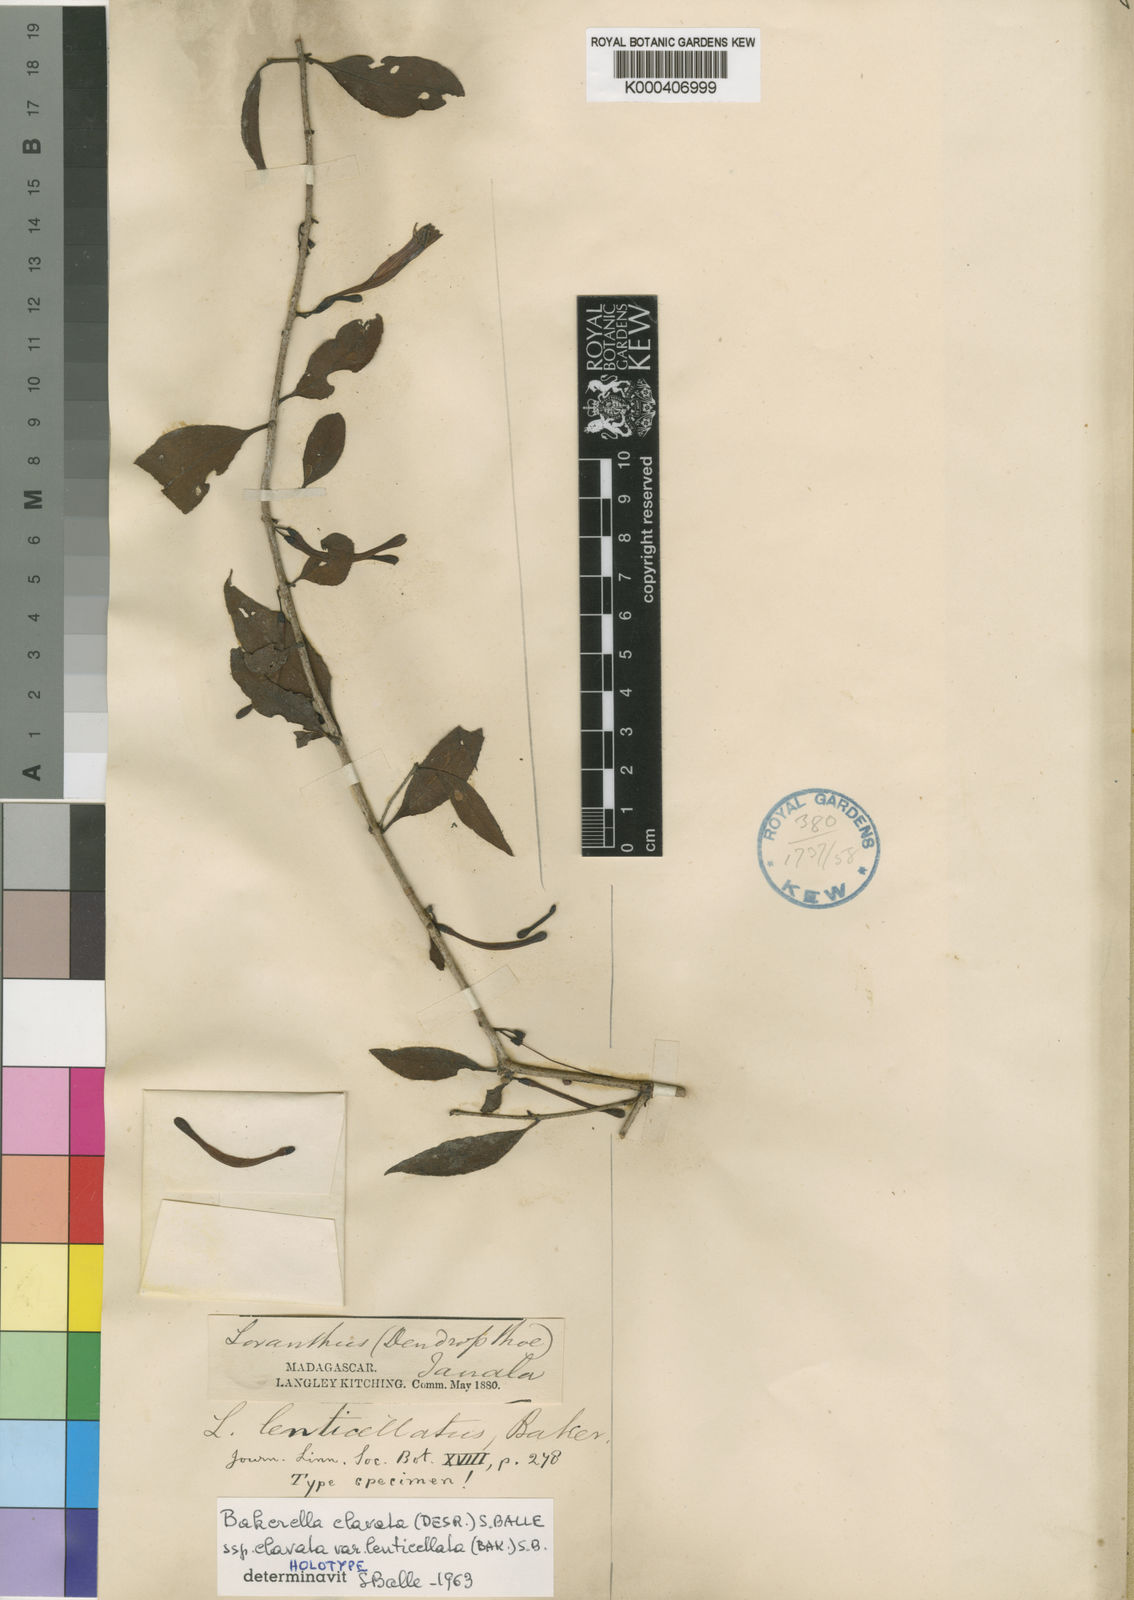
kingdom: Plantae
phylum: Tracheophyta
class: Magnoliopsida
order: Santalales
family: Loranthaceae
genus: Bakerella
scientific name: Bakerella clavata
